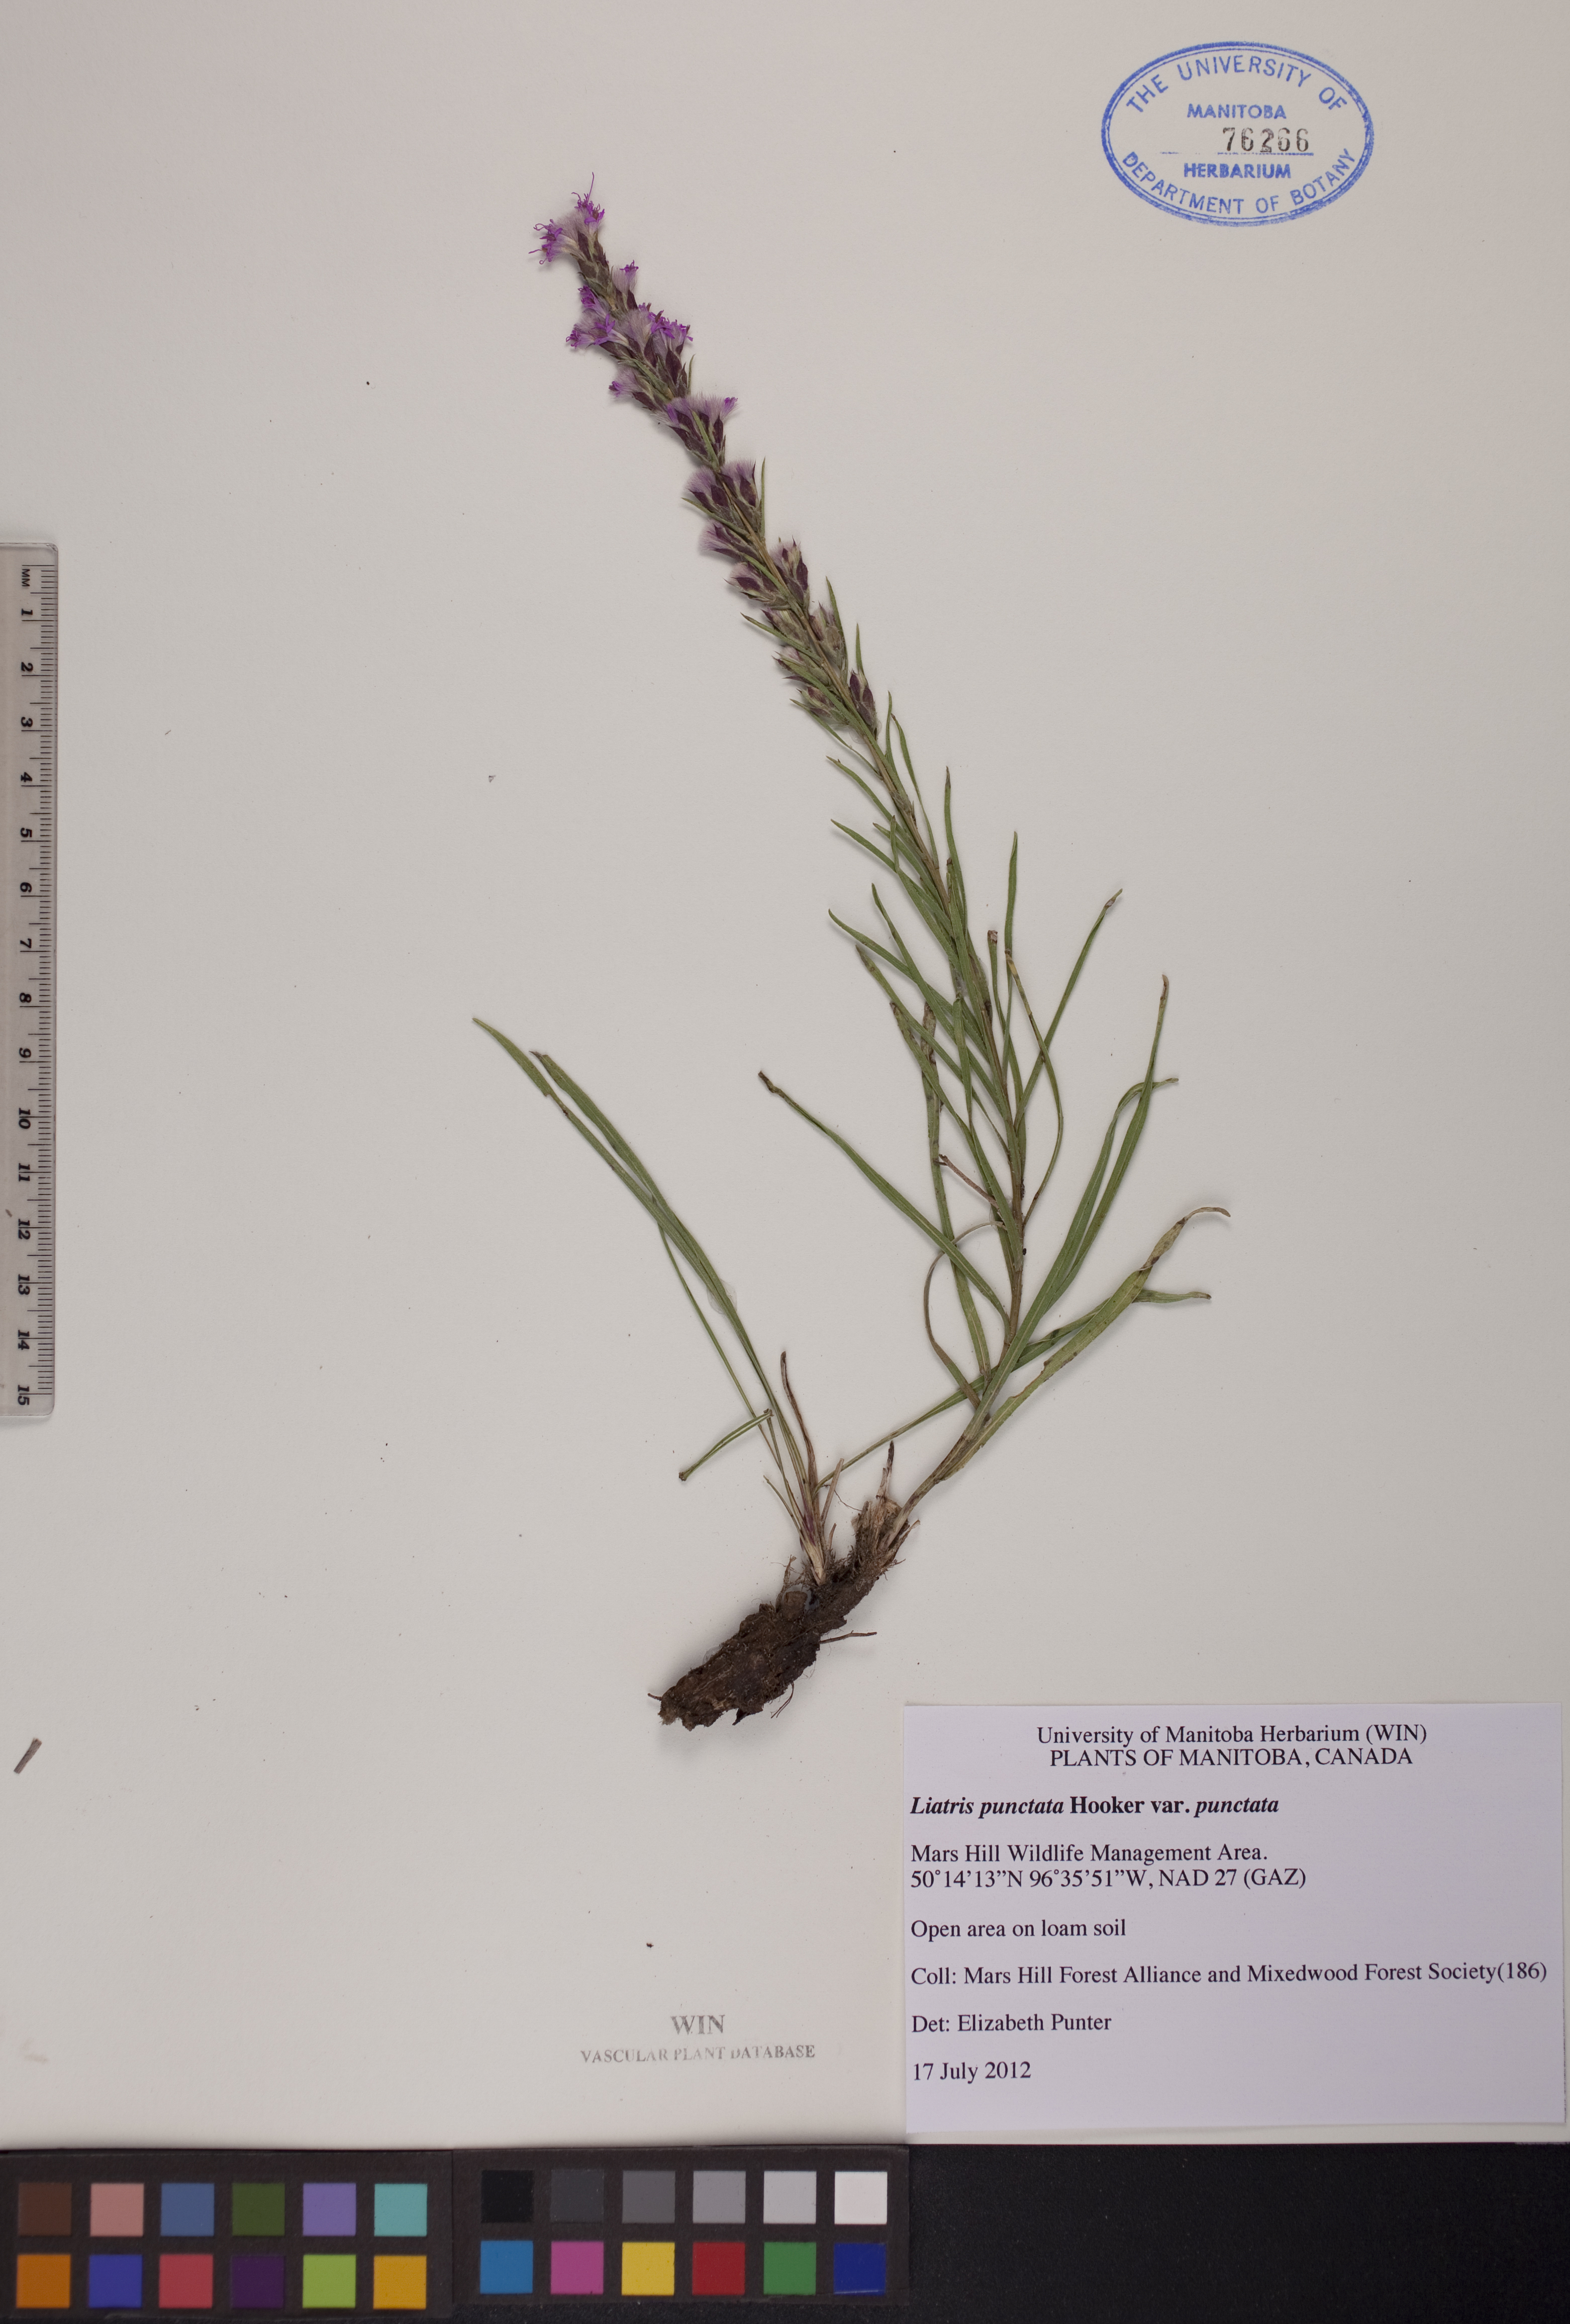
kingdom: Plantae
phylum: Tracheophyta
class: Magnoliopsida
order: Asterales
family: Asteraceae
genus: Liatris
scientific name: Liatris punctata
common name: Dotted gayfeather
